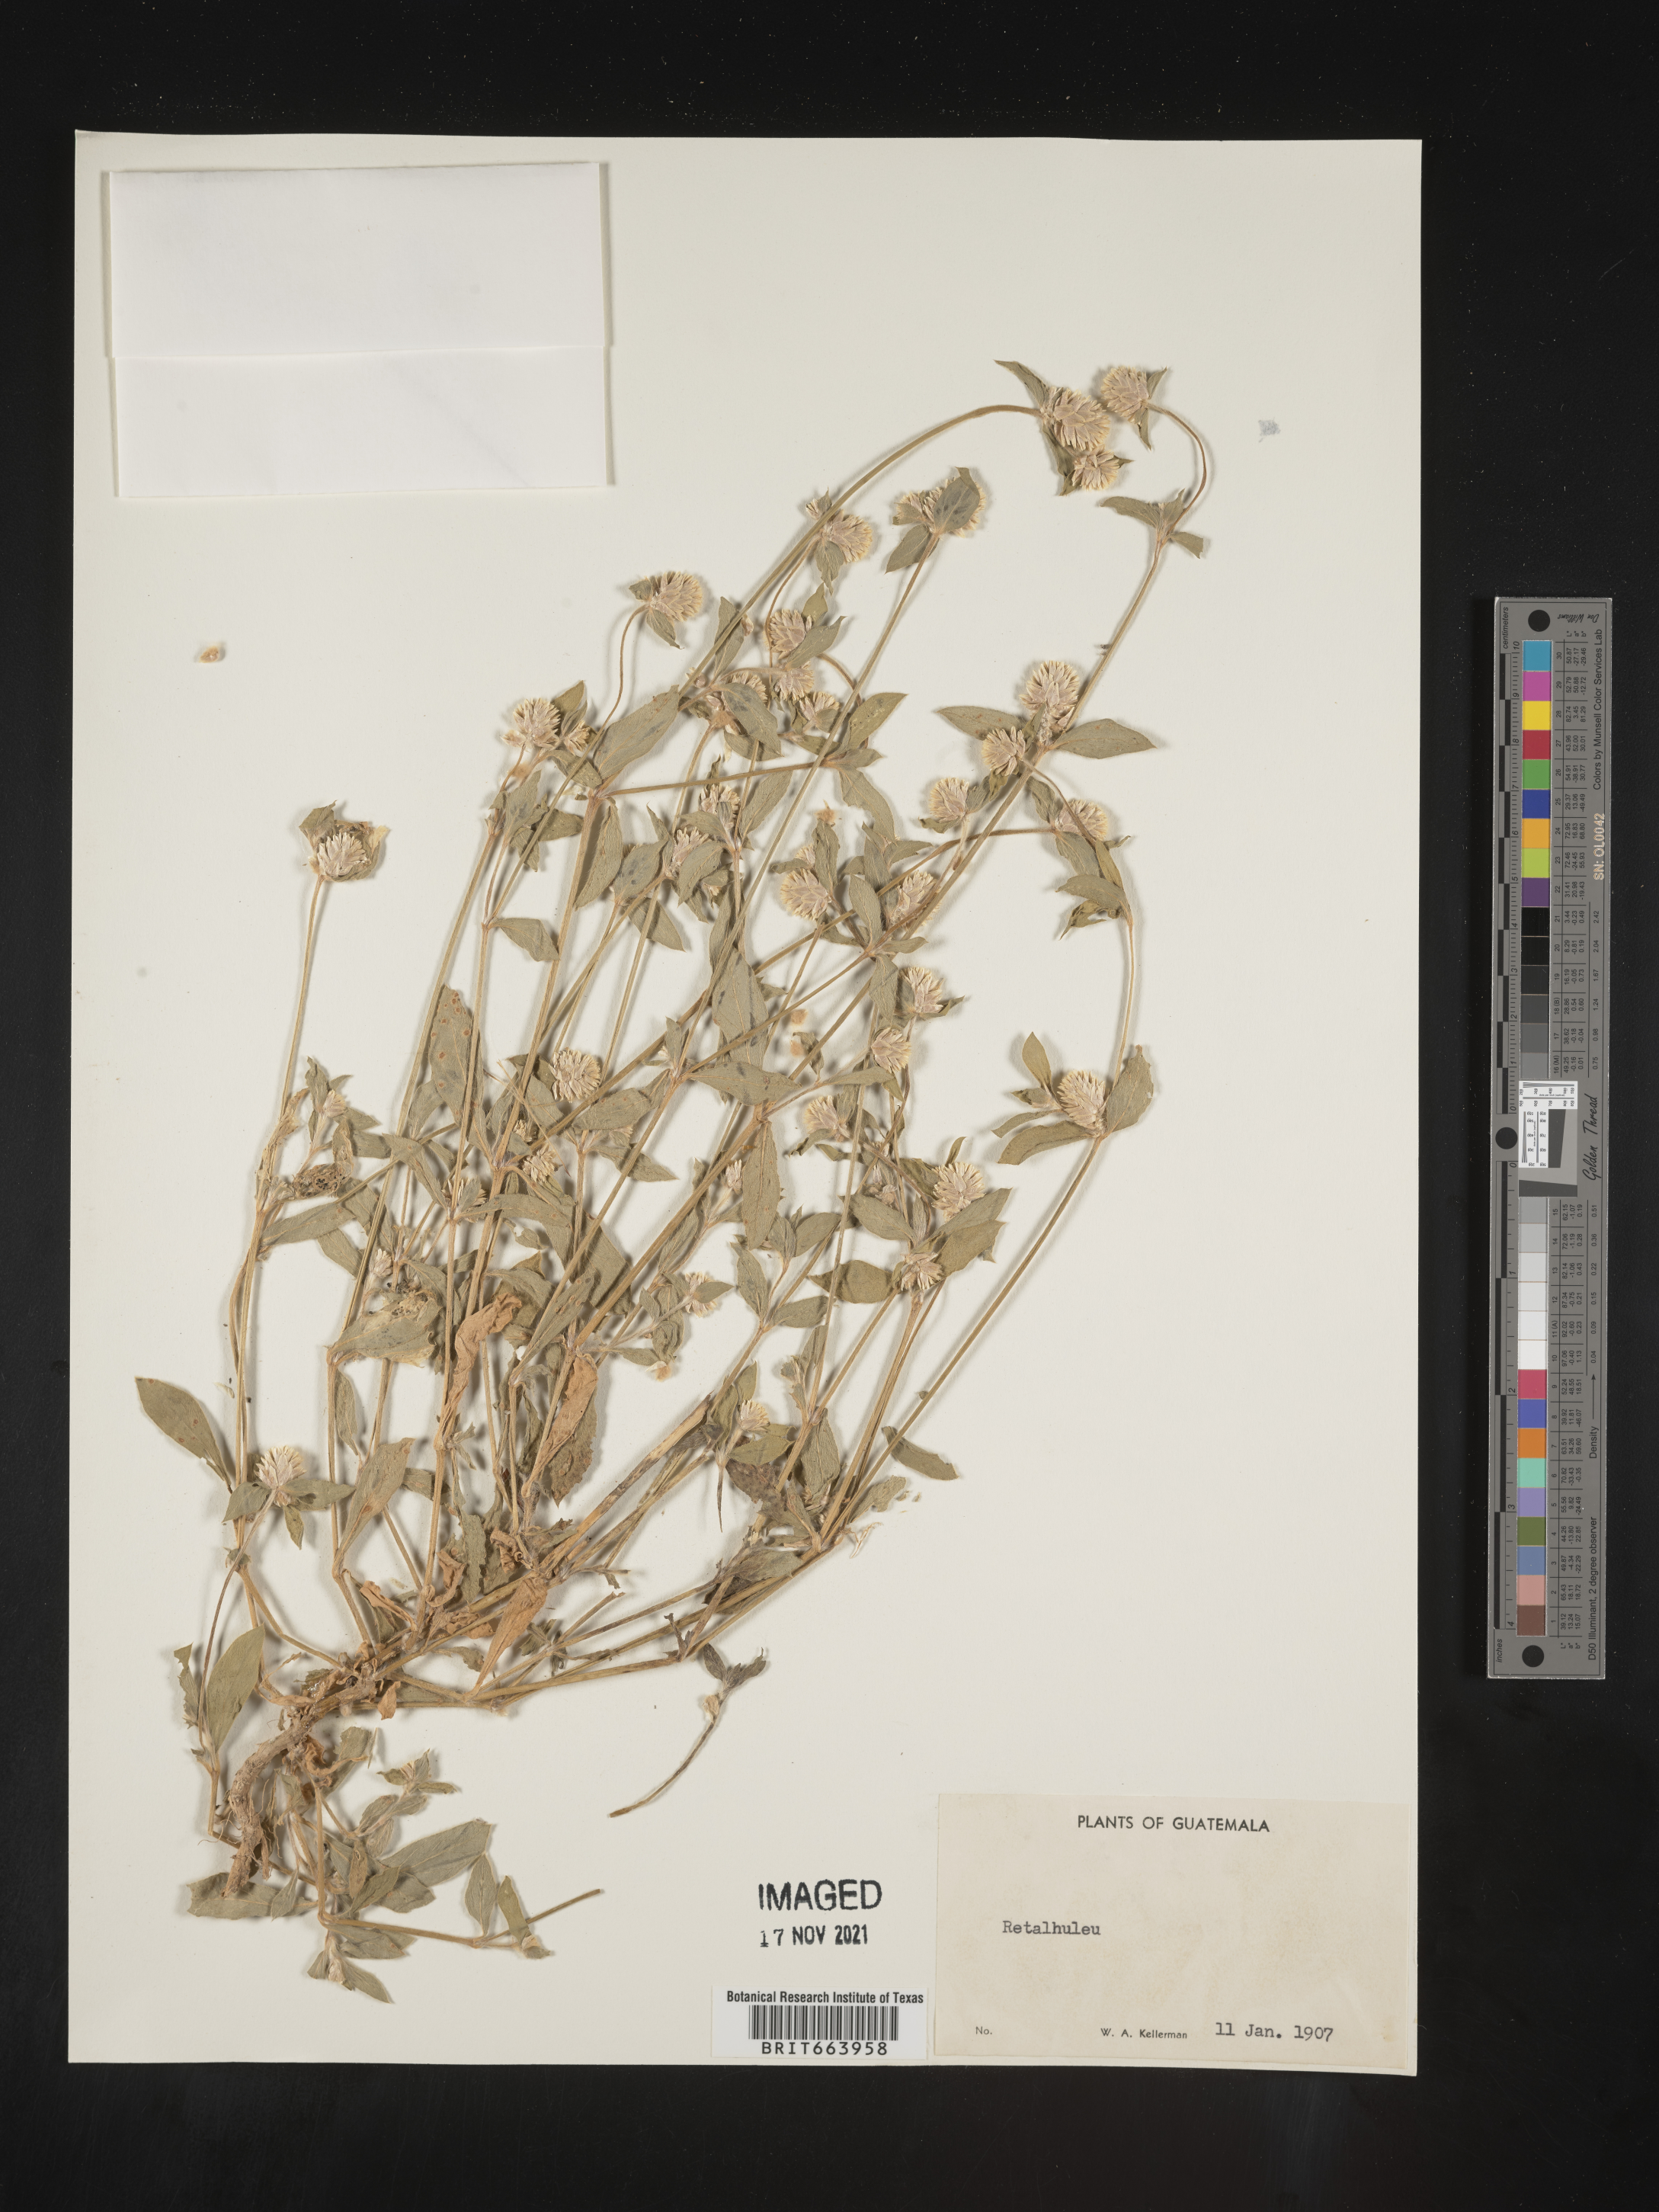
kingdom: Plantae
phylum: Tracheophyta
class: Magnoliopsida
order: Caryophyllales
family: Amaranthaceae
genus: Gomphrena
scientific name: Gomphrena
